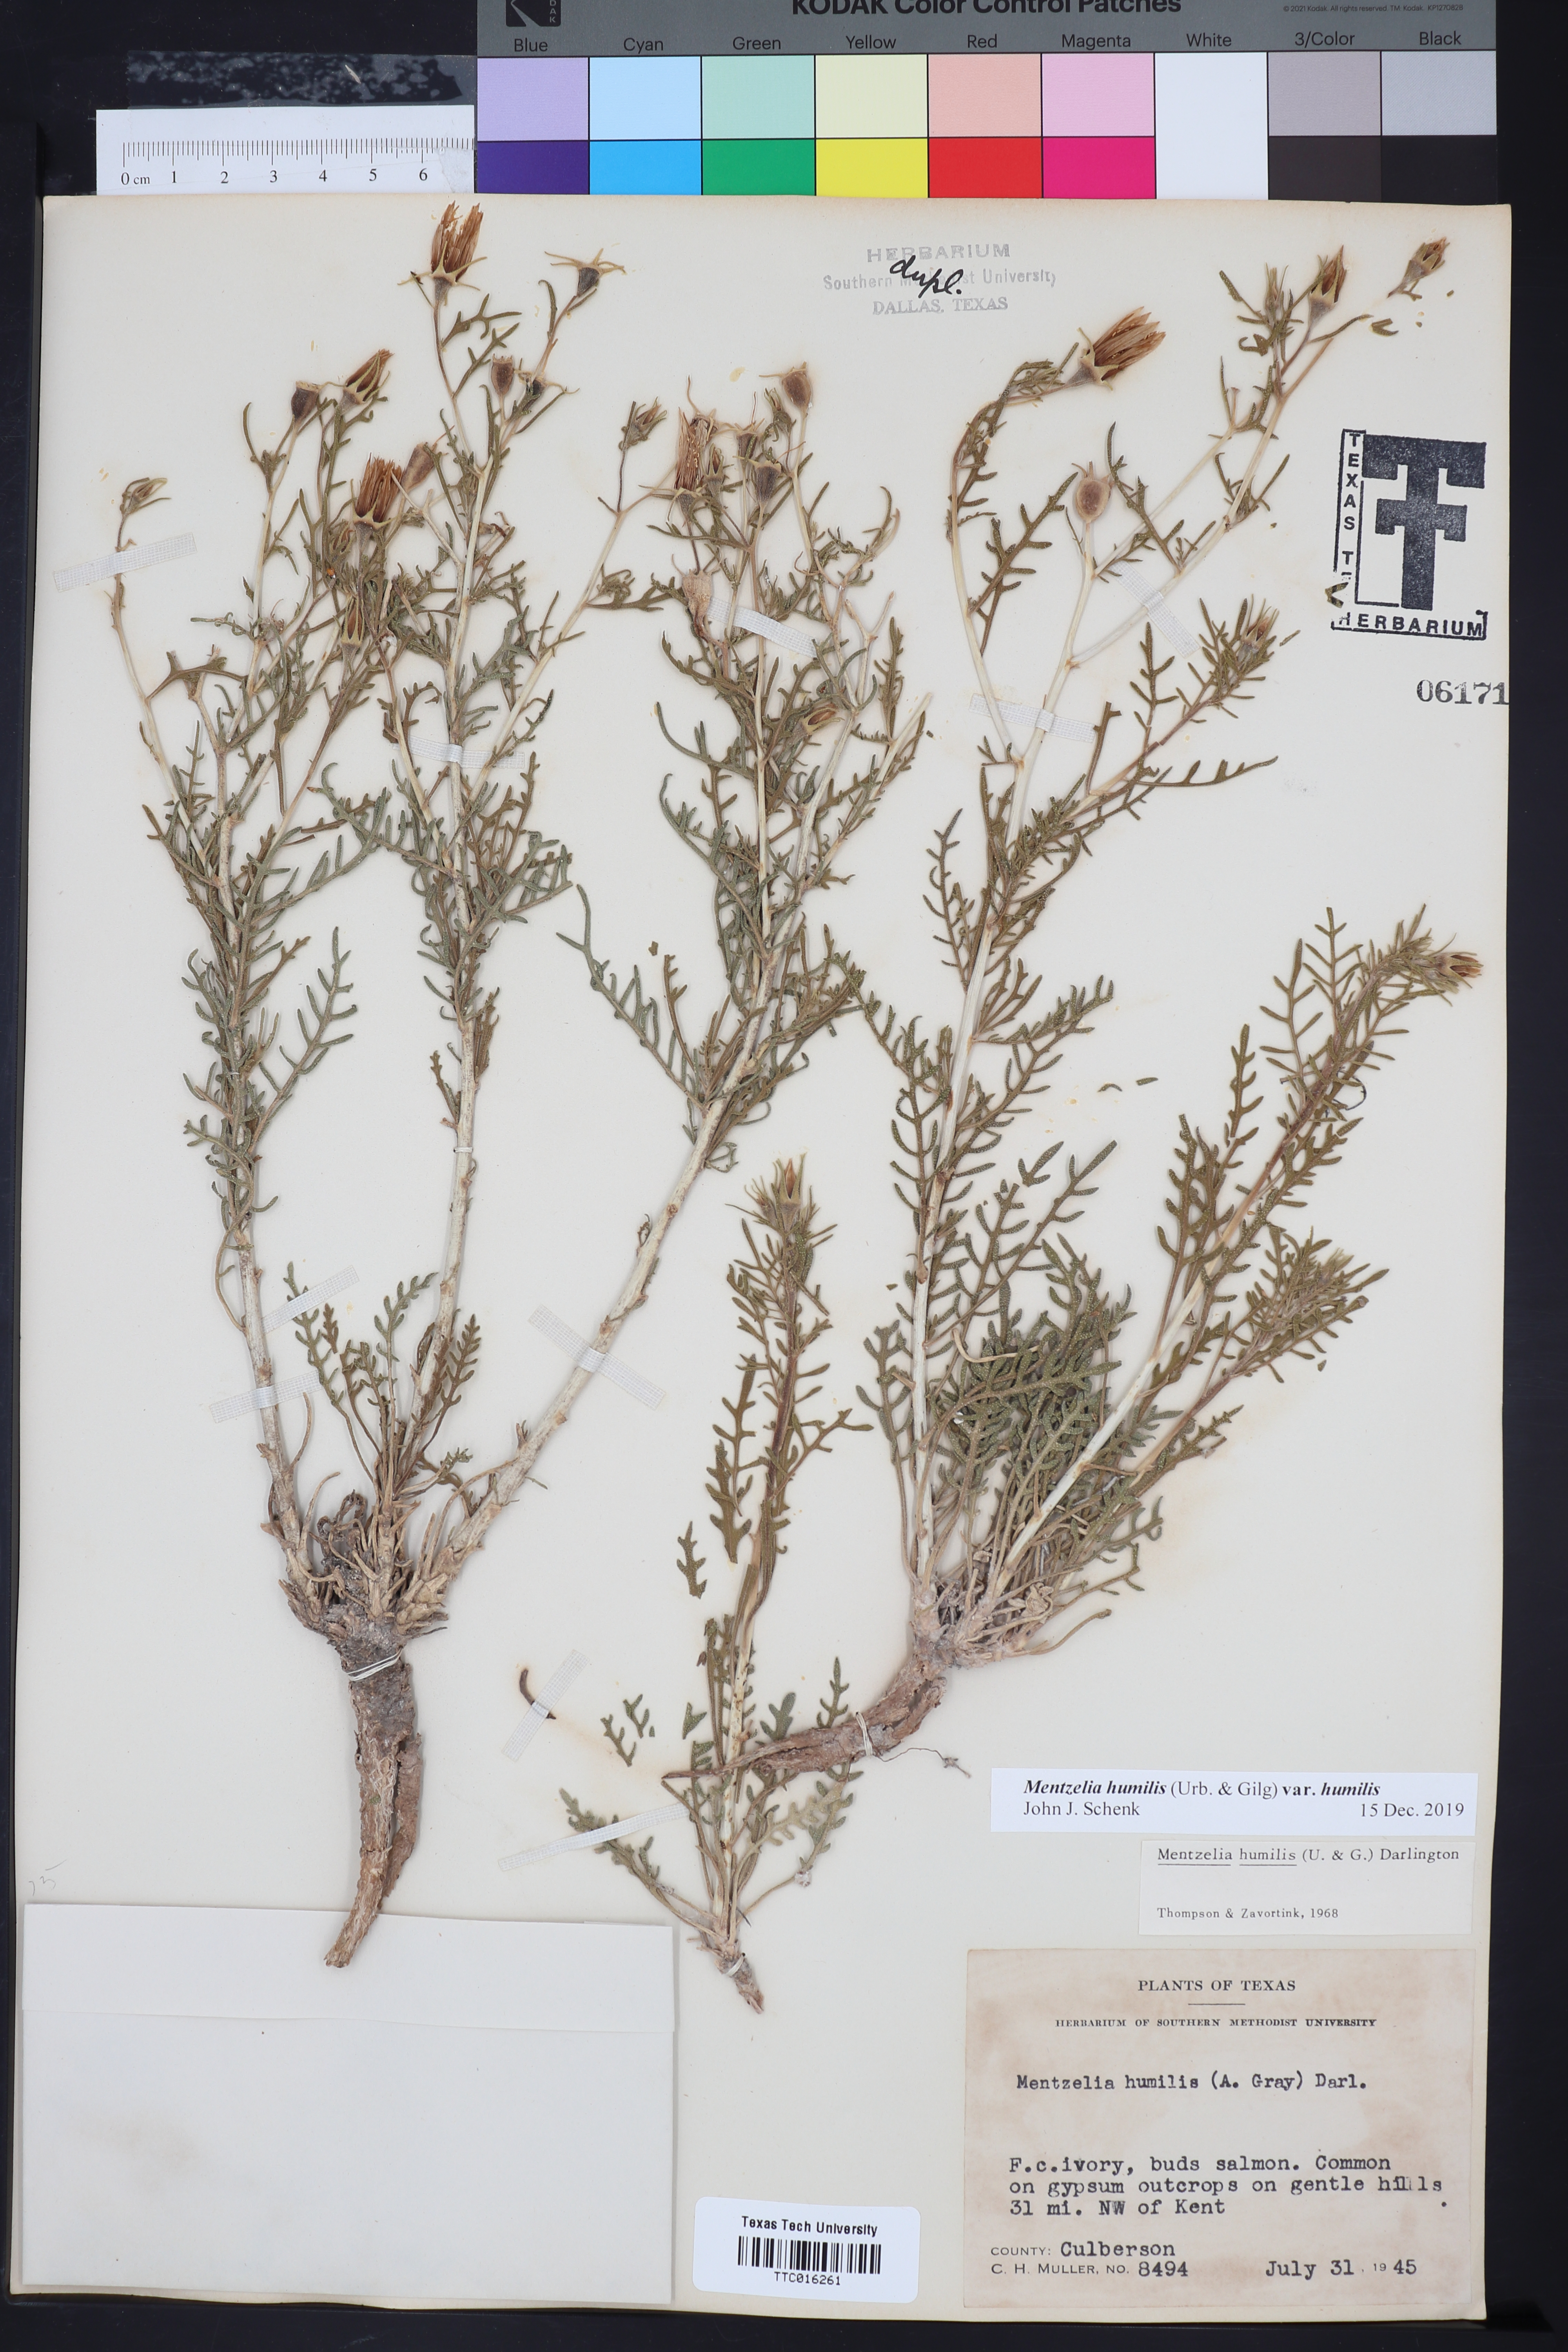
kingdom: Plantae
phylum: Tracheophyta
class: Magnoliopsida
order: Cornales
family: Loasaceae
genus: Mentzelia
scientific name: Mentzelia humilis
